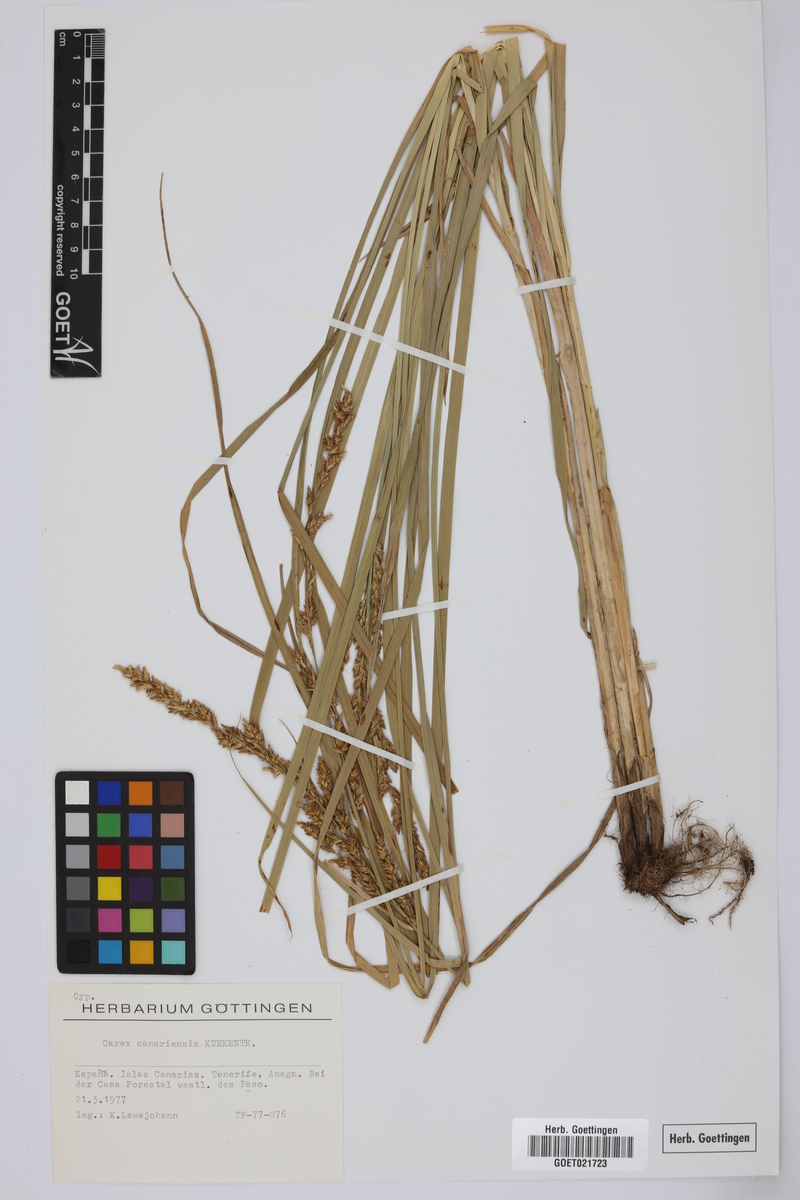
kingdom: Plantae
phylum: Tracheophyta
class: Liliopsida
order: Poales
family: Cyperaceae
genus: Carex
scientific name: Carex canariensis
